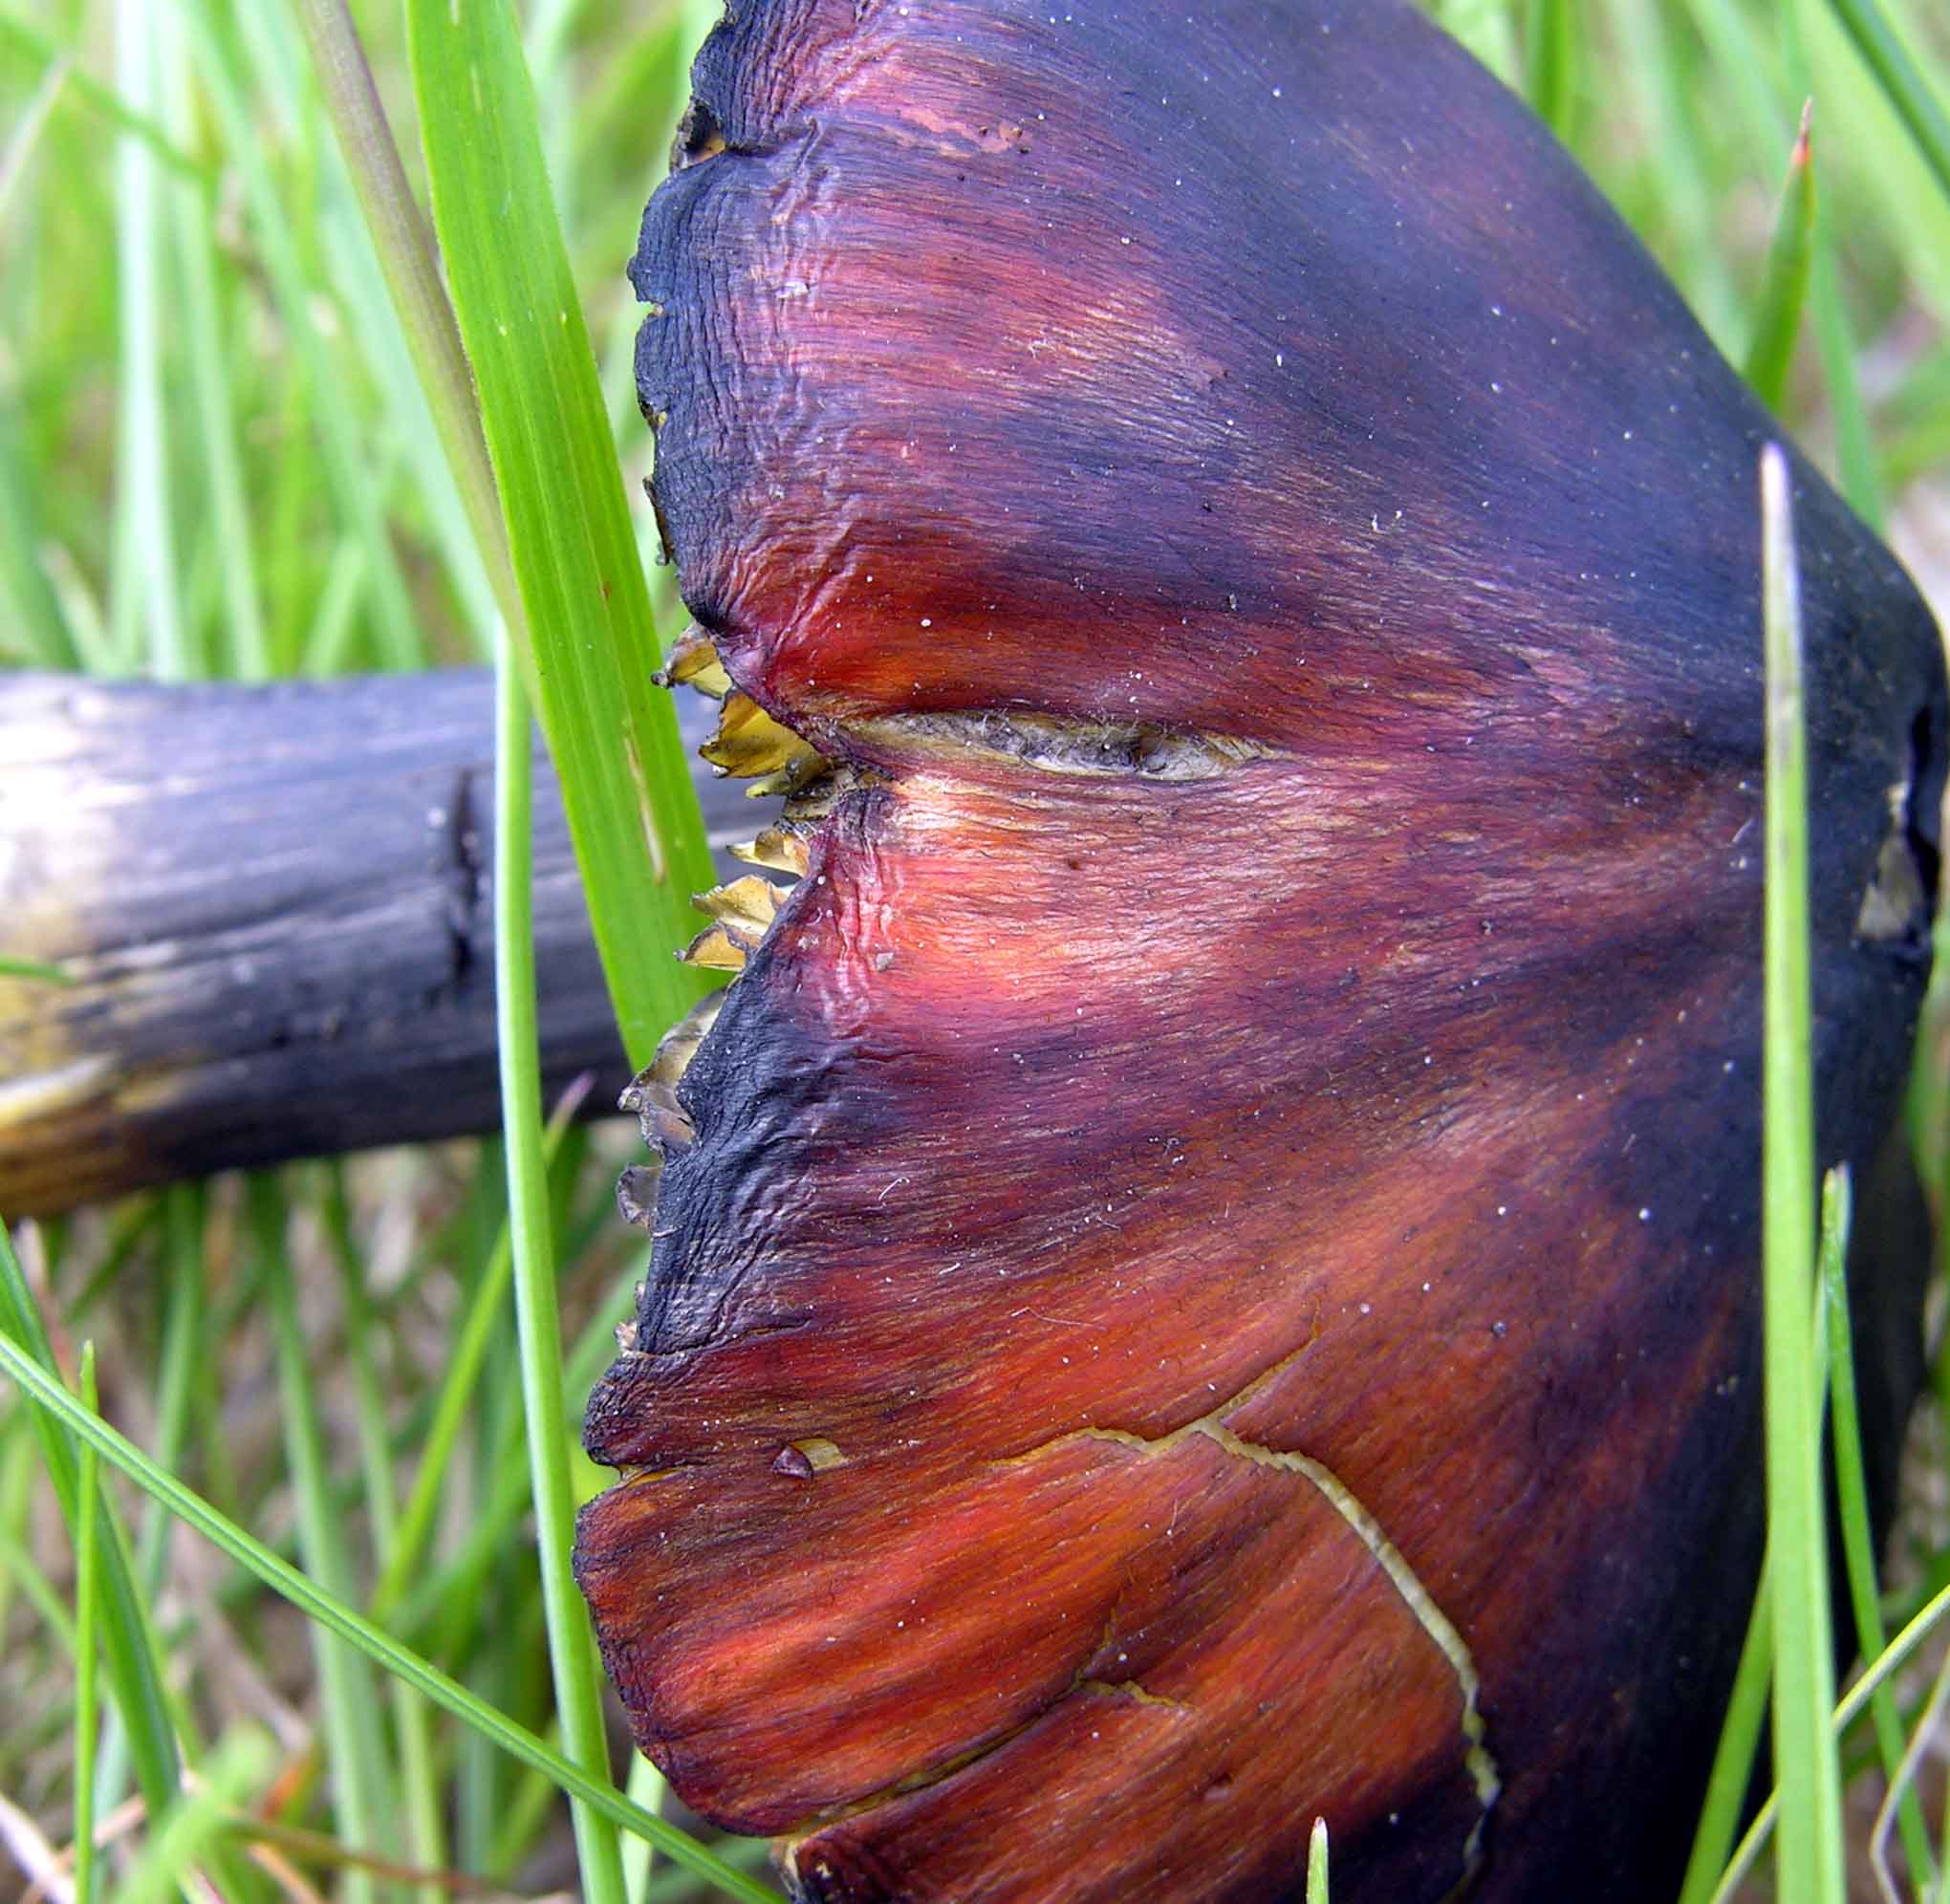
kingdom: Fungi
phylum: Basidiomycota
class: Agaricomycetes
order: Agaricales
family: Hygrophoraceae
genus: Hygrocybe
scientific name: Hygrocybe conica
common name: kegle-vokshat
